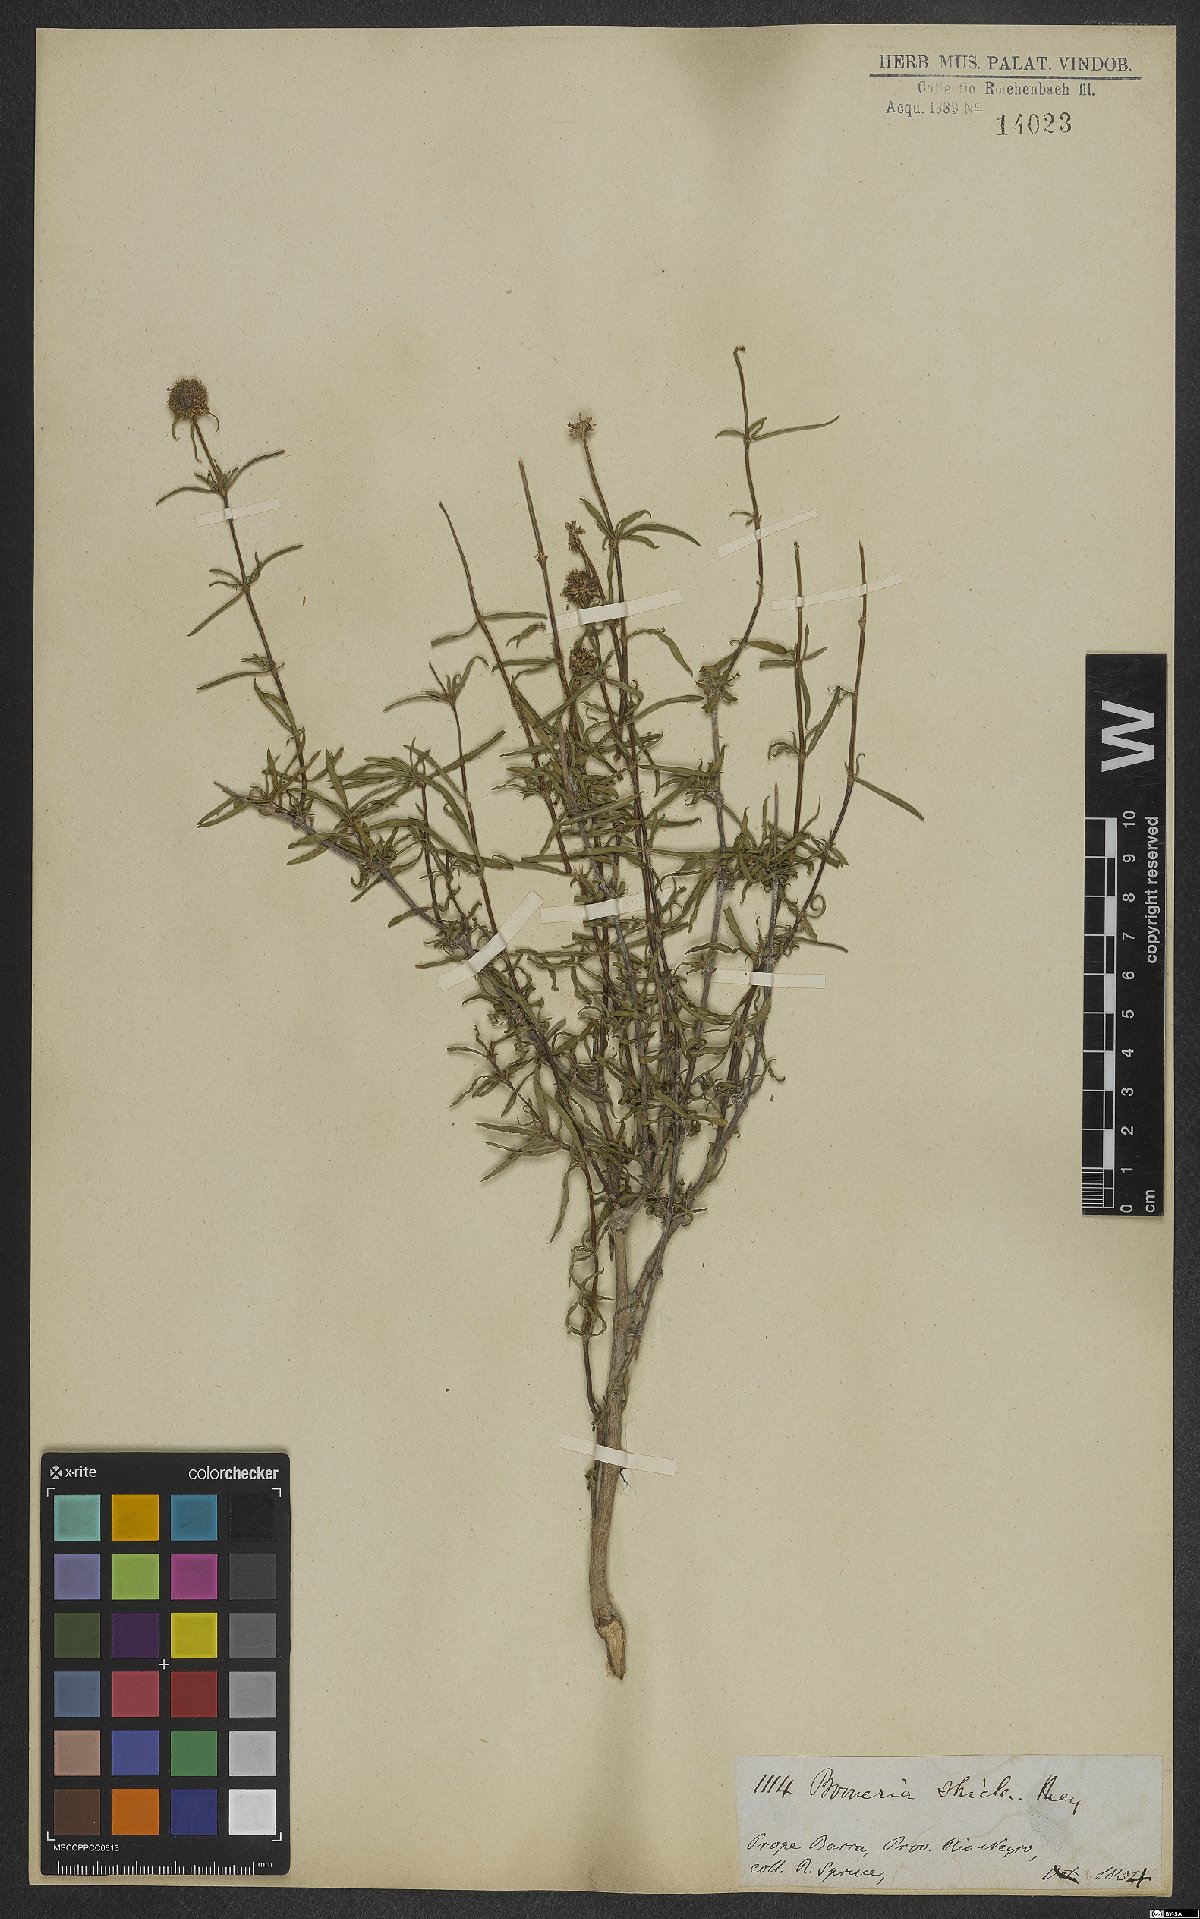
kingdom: Plantae
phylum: Tracheophyta
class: Magnoliopsida
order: Gentianales
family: Rubiaceae
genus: Spermacoce
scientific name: Spermacoce ocymoides
